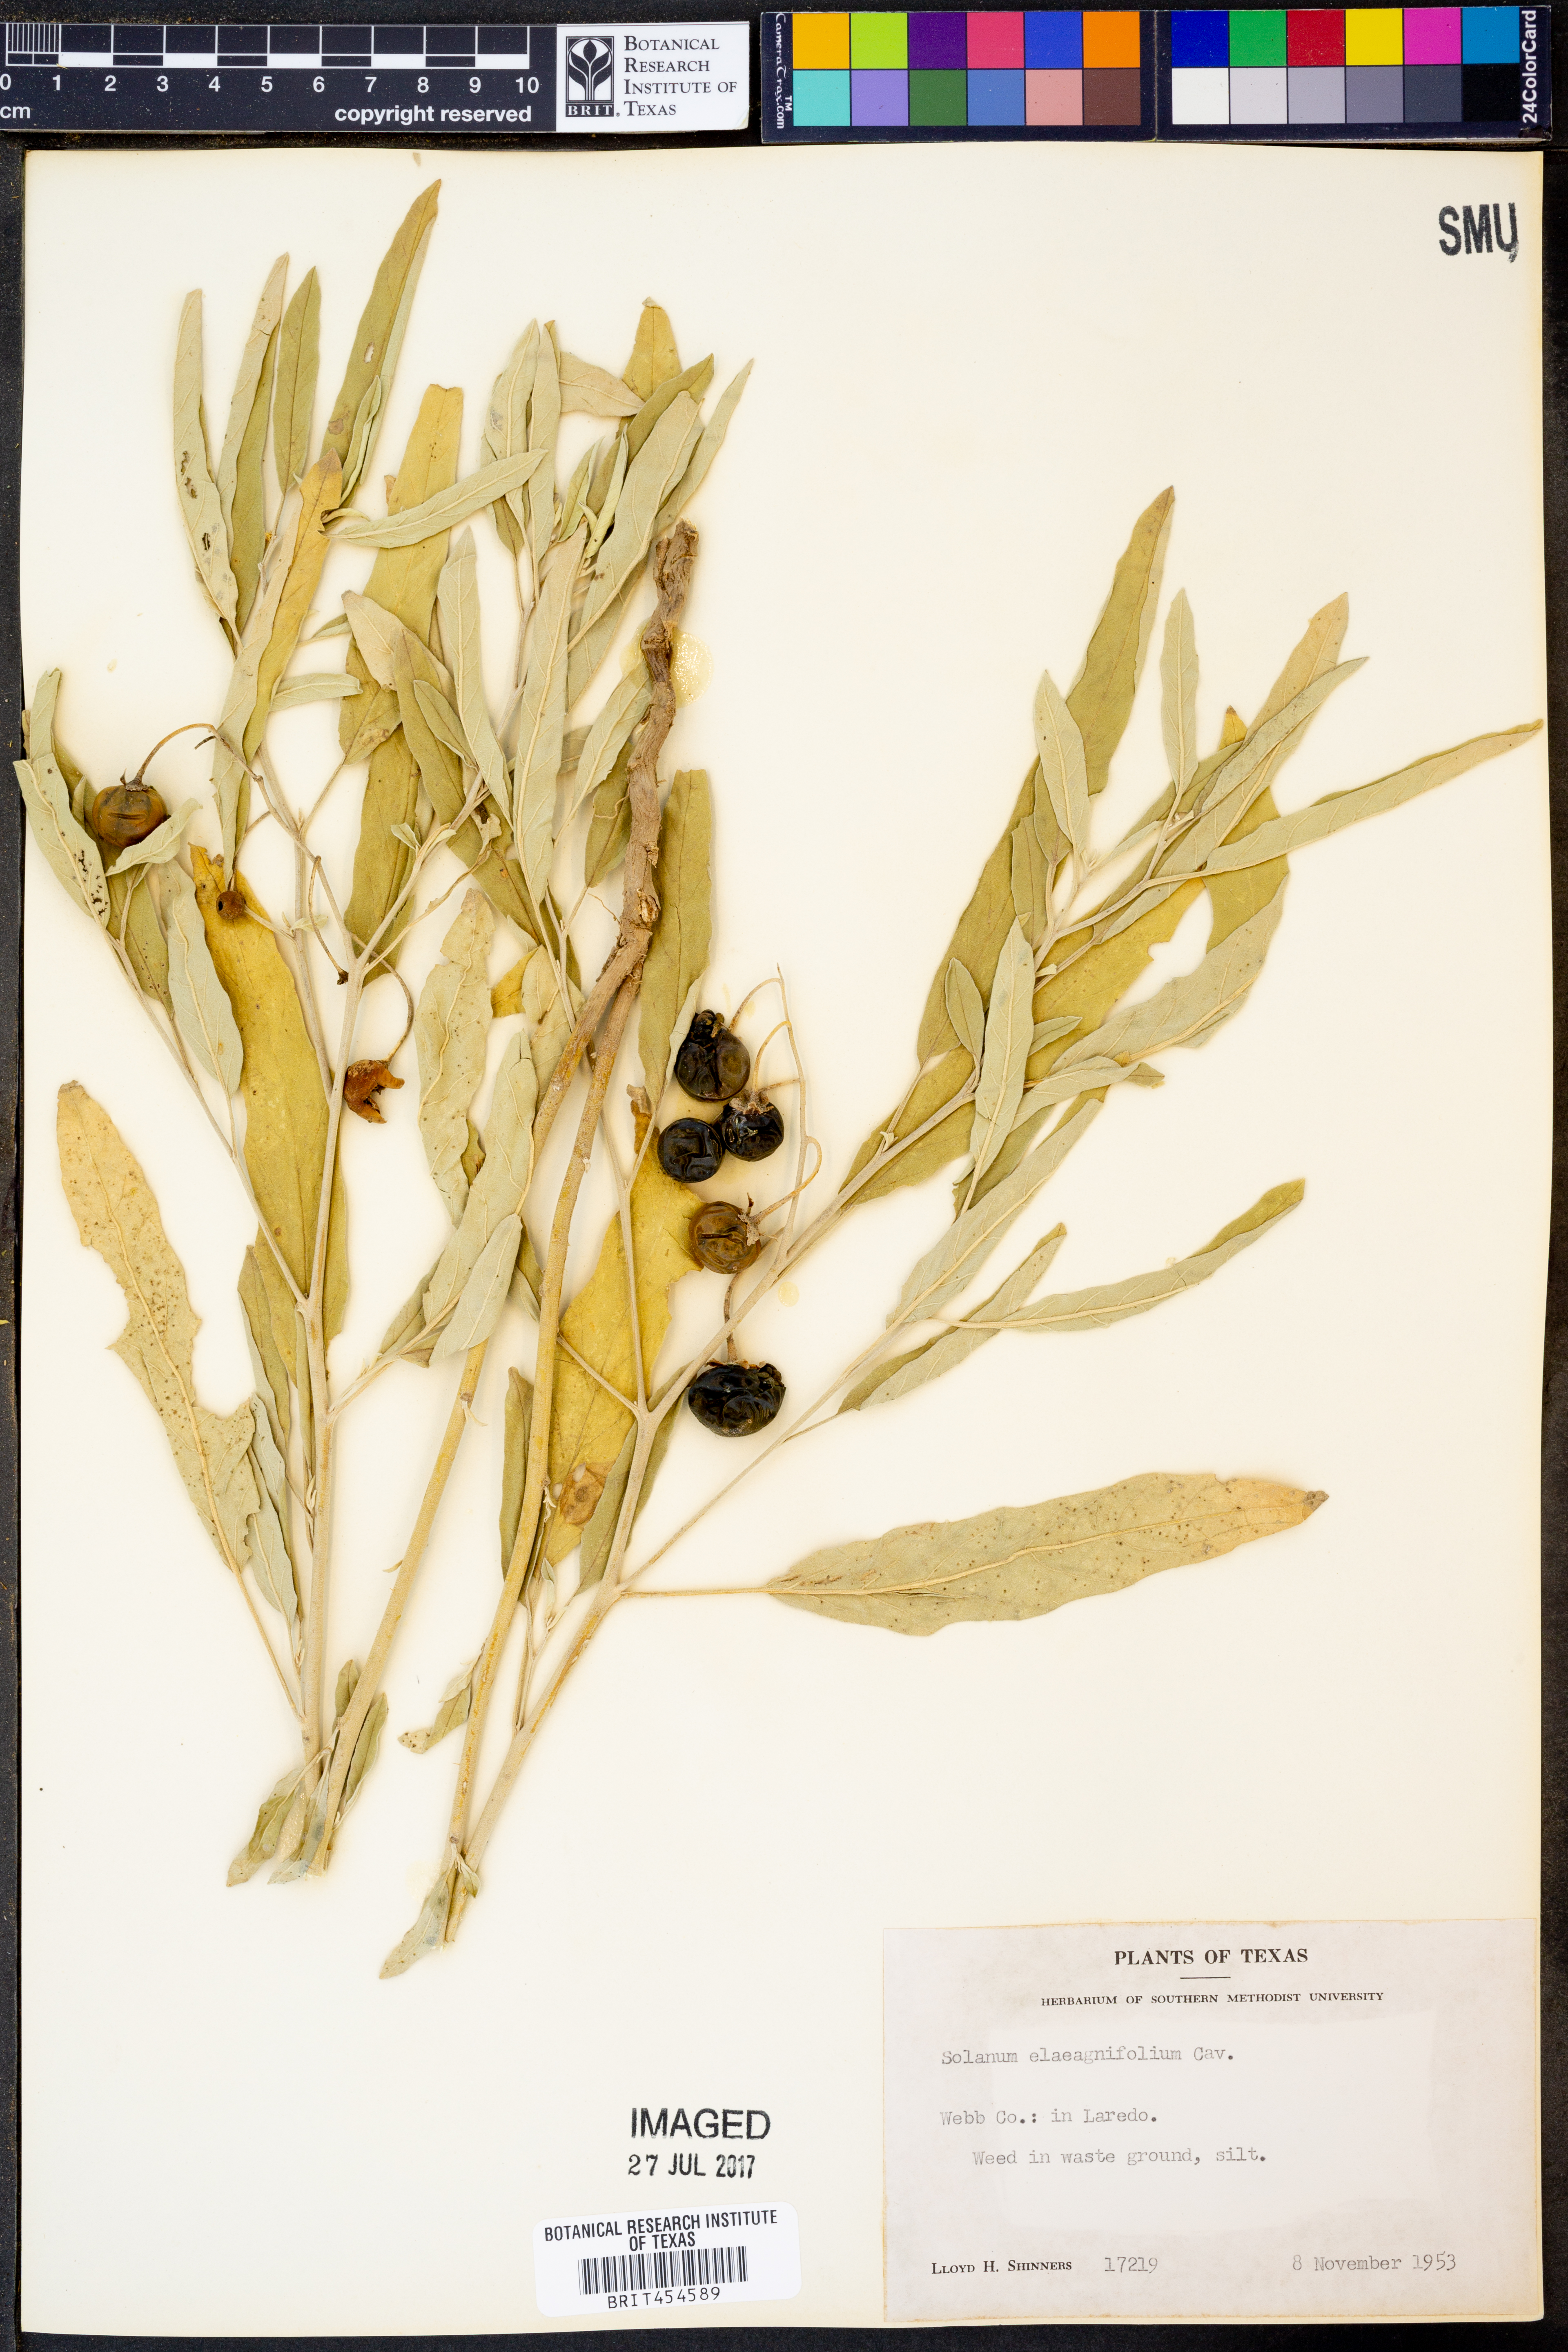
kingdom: Plantae
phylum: Tracheophyta
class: Magnoliopsida
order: Solanales
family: Solanaceae
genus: Solanum
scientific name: Solanum elaeagnifolium
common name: Silverleaf nightshade
